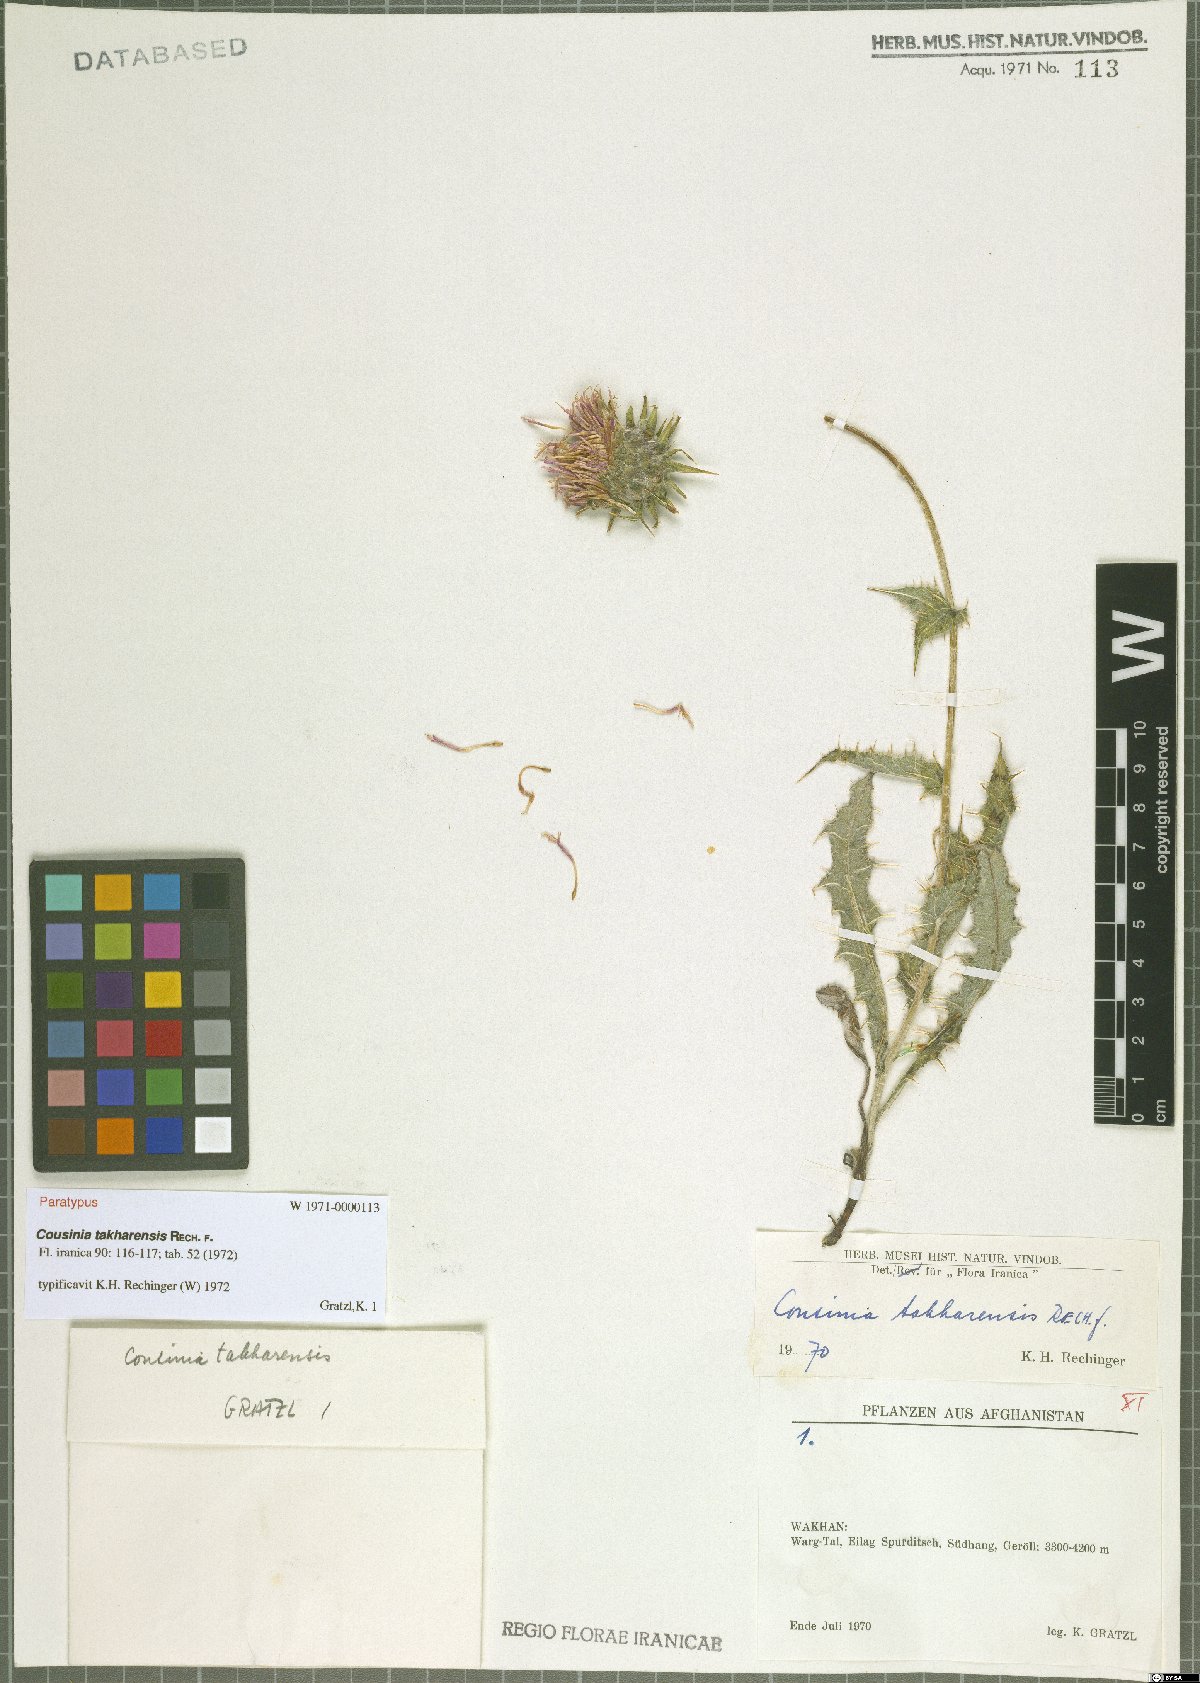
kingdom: Plantae
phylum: Tracheophyta
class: Magnoliopsida
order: Asterales
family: Asteraceae
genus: Cousinia
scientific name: Cousinia takharensis
